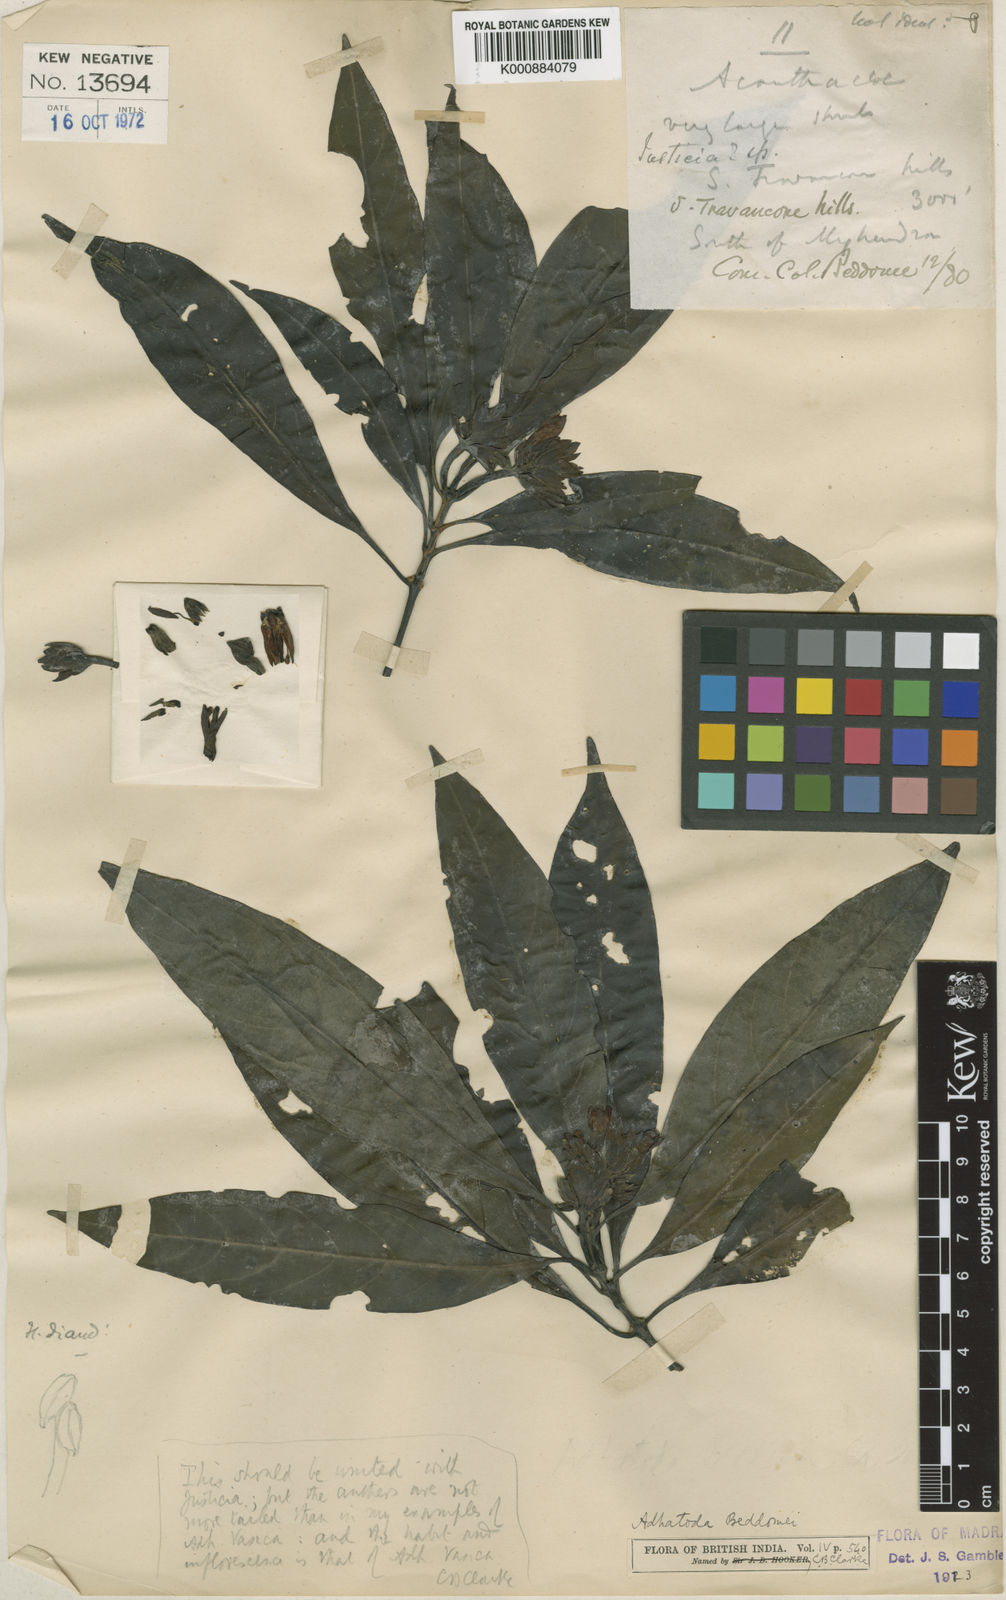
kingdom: Plantae
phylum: Tracheophyta
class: Magnoliopsida
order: Lamiales
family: Acanthaceae
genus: Justicia
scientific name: Justicia beddomei
